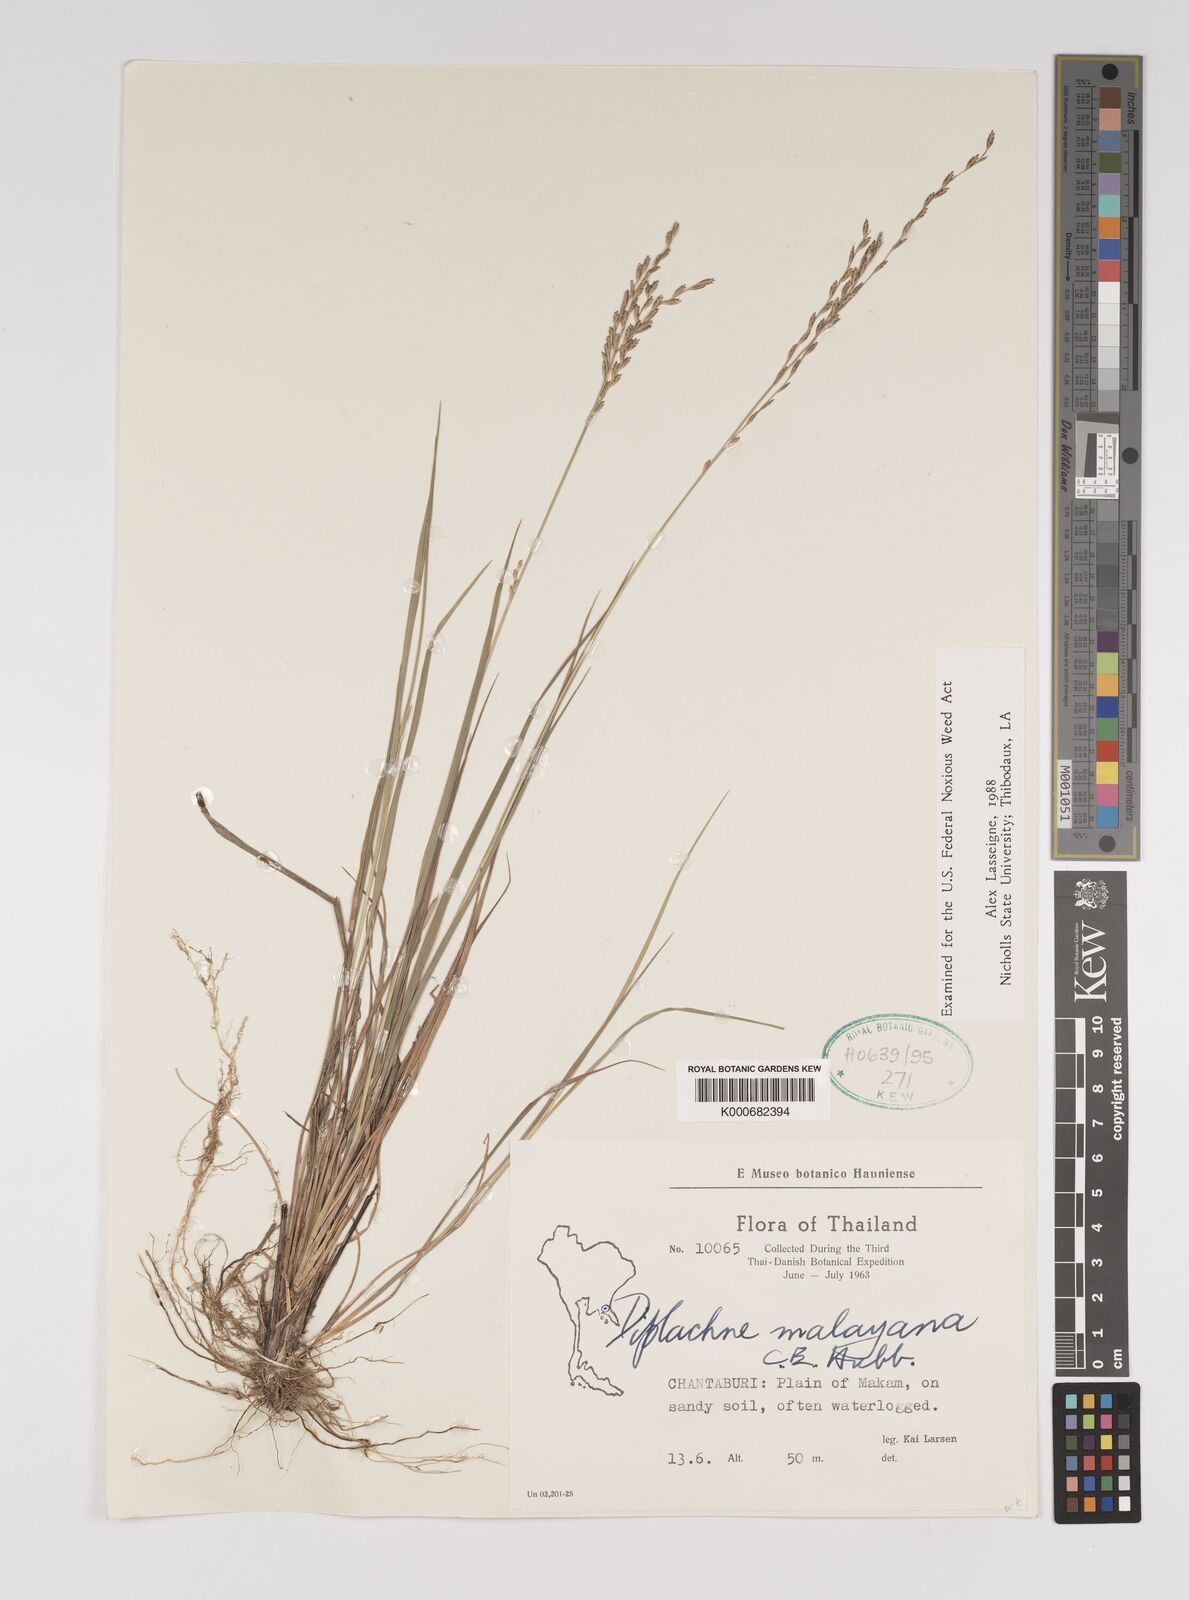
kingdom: Plantae
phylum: Tracheophyta
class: Liliopsida
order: Poales
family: Poaceae
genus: Leptochloa
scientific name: Leptochloa malayana
